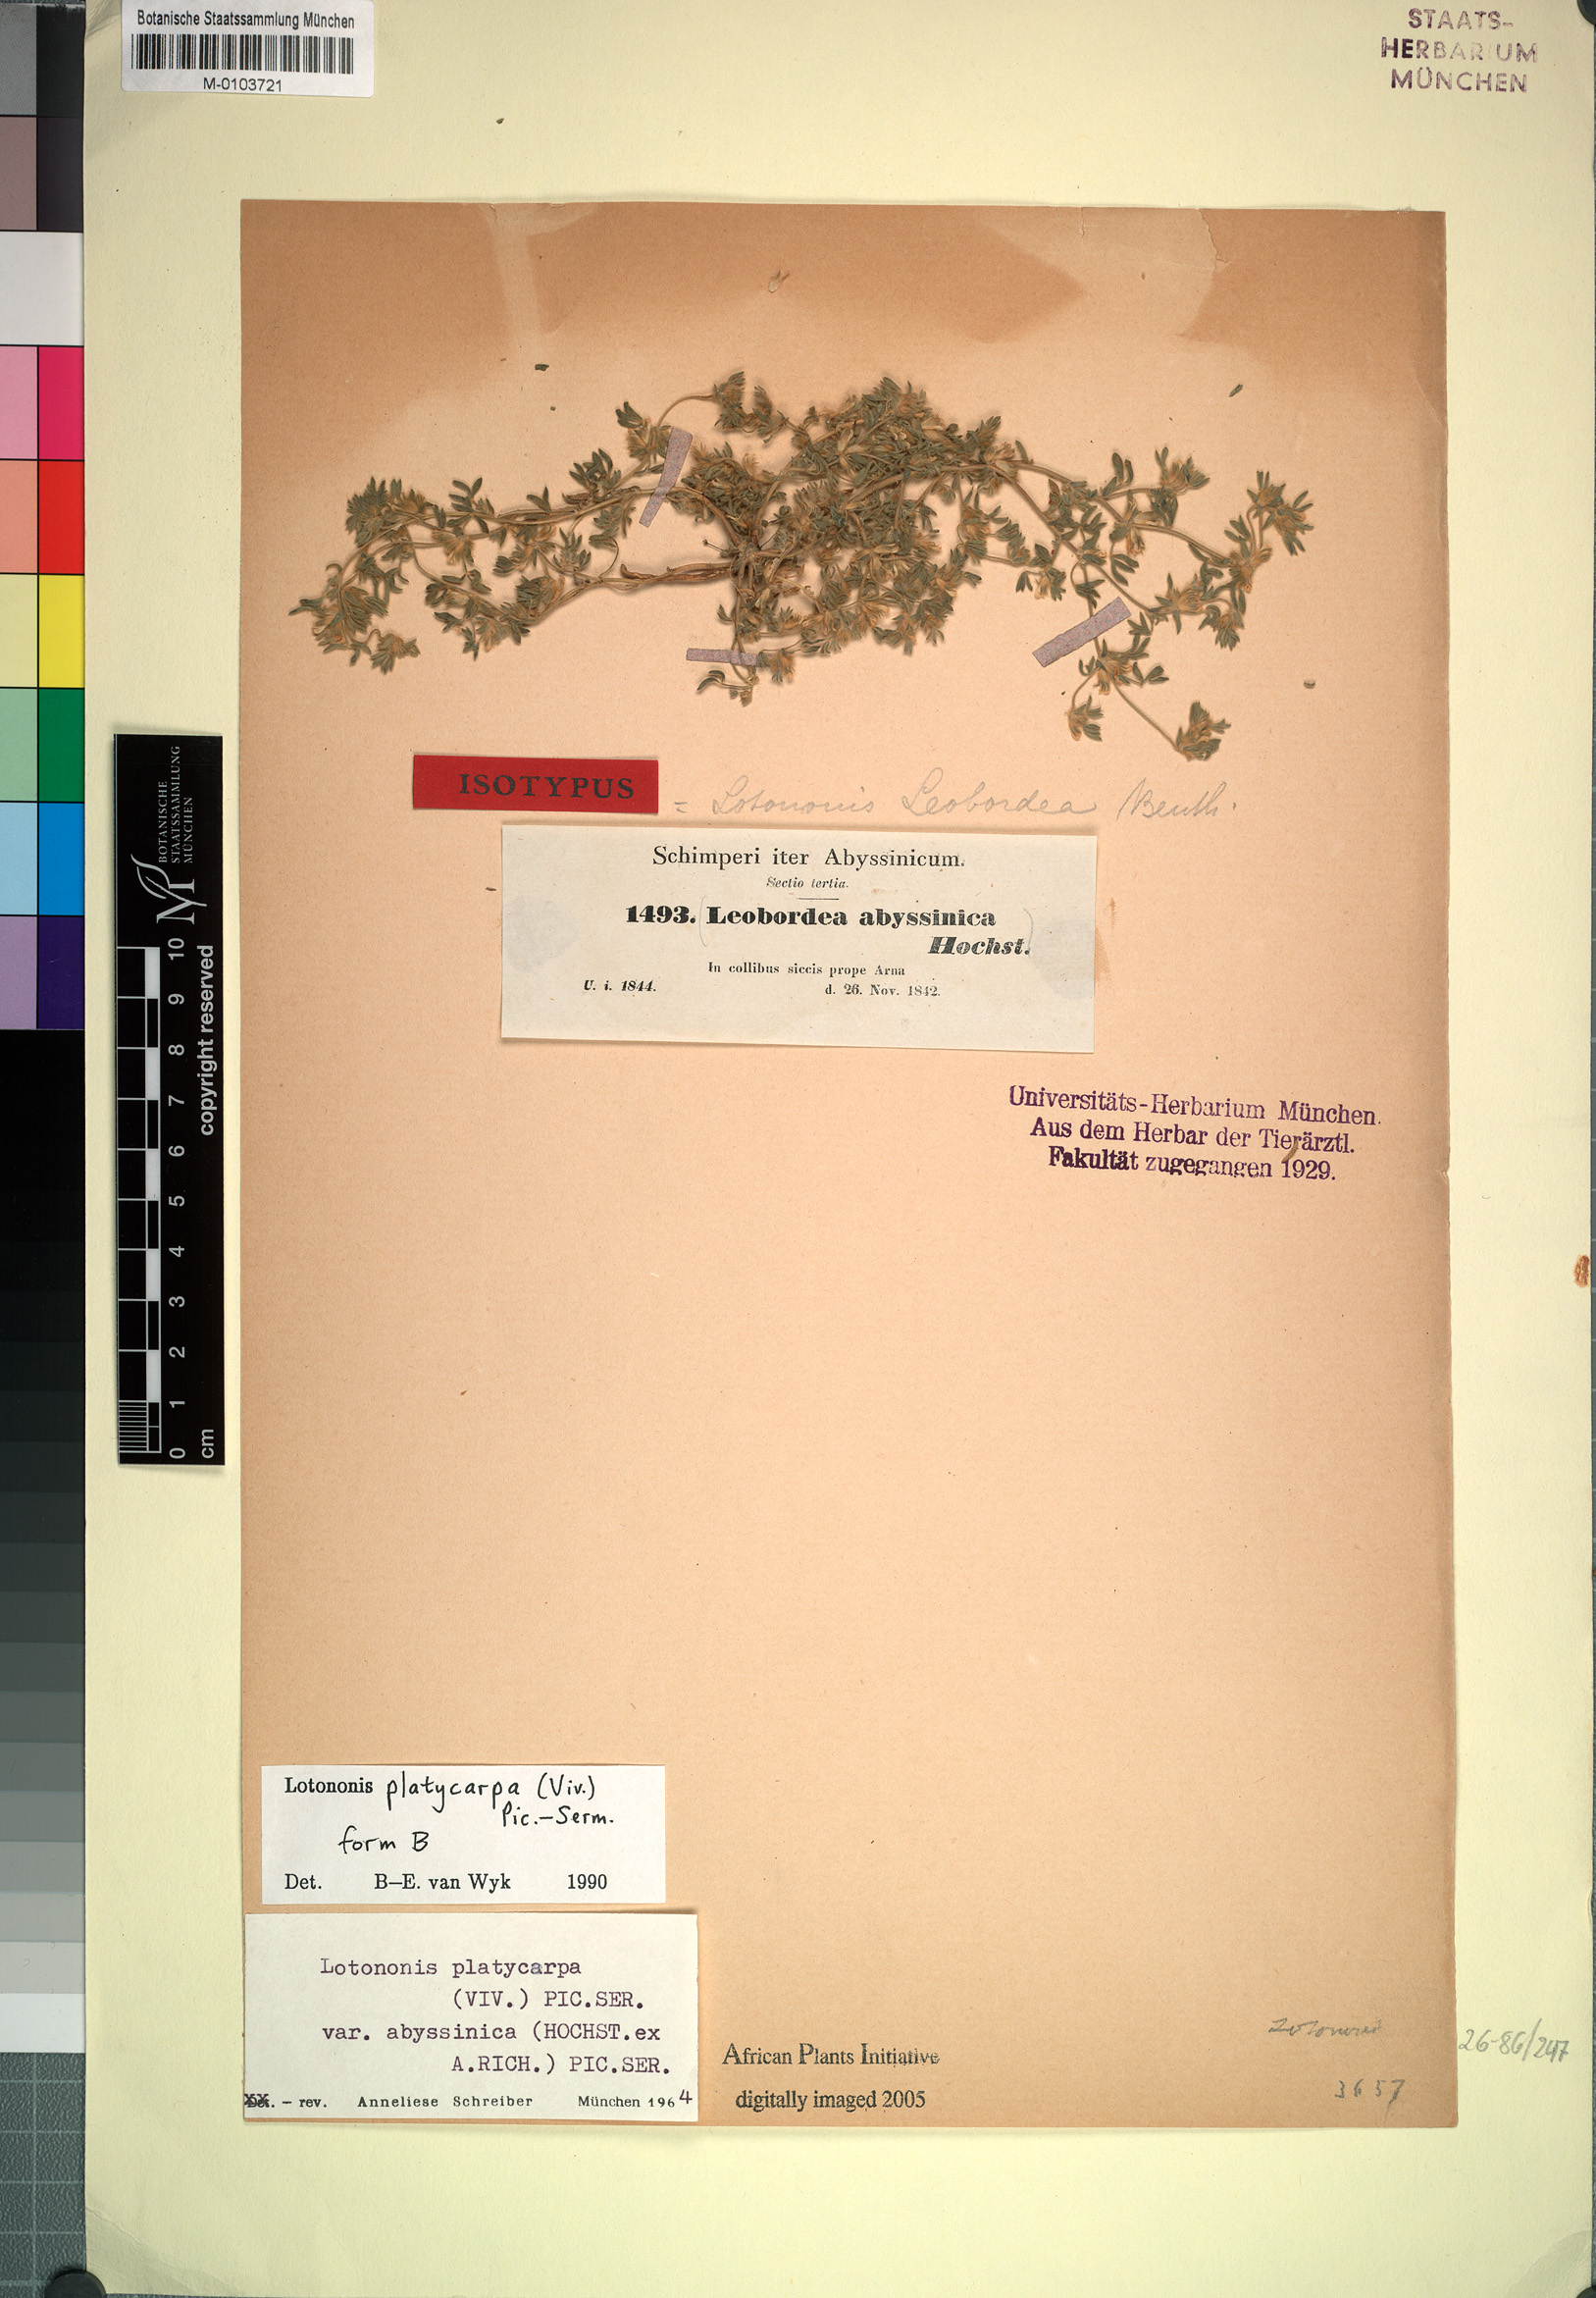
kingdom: Plantae
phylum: Tracheophyta
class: Magnoliopsida
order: Fabales
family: Fabaceae
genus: Leobordea
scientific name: Leobordea platycarpa
